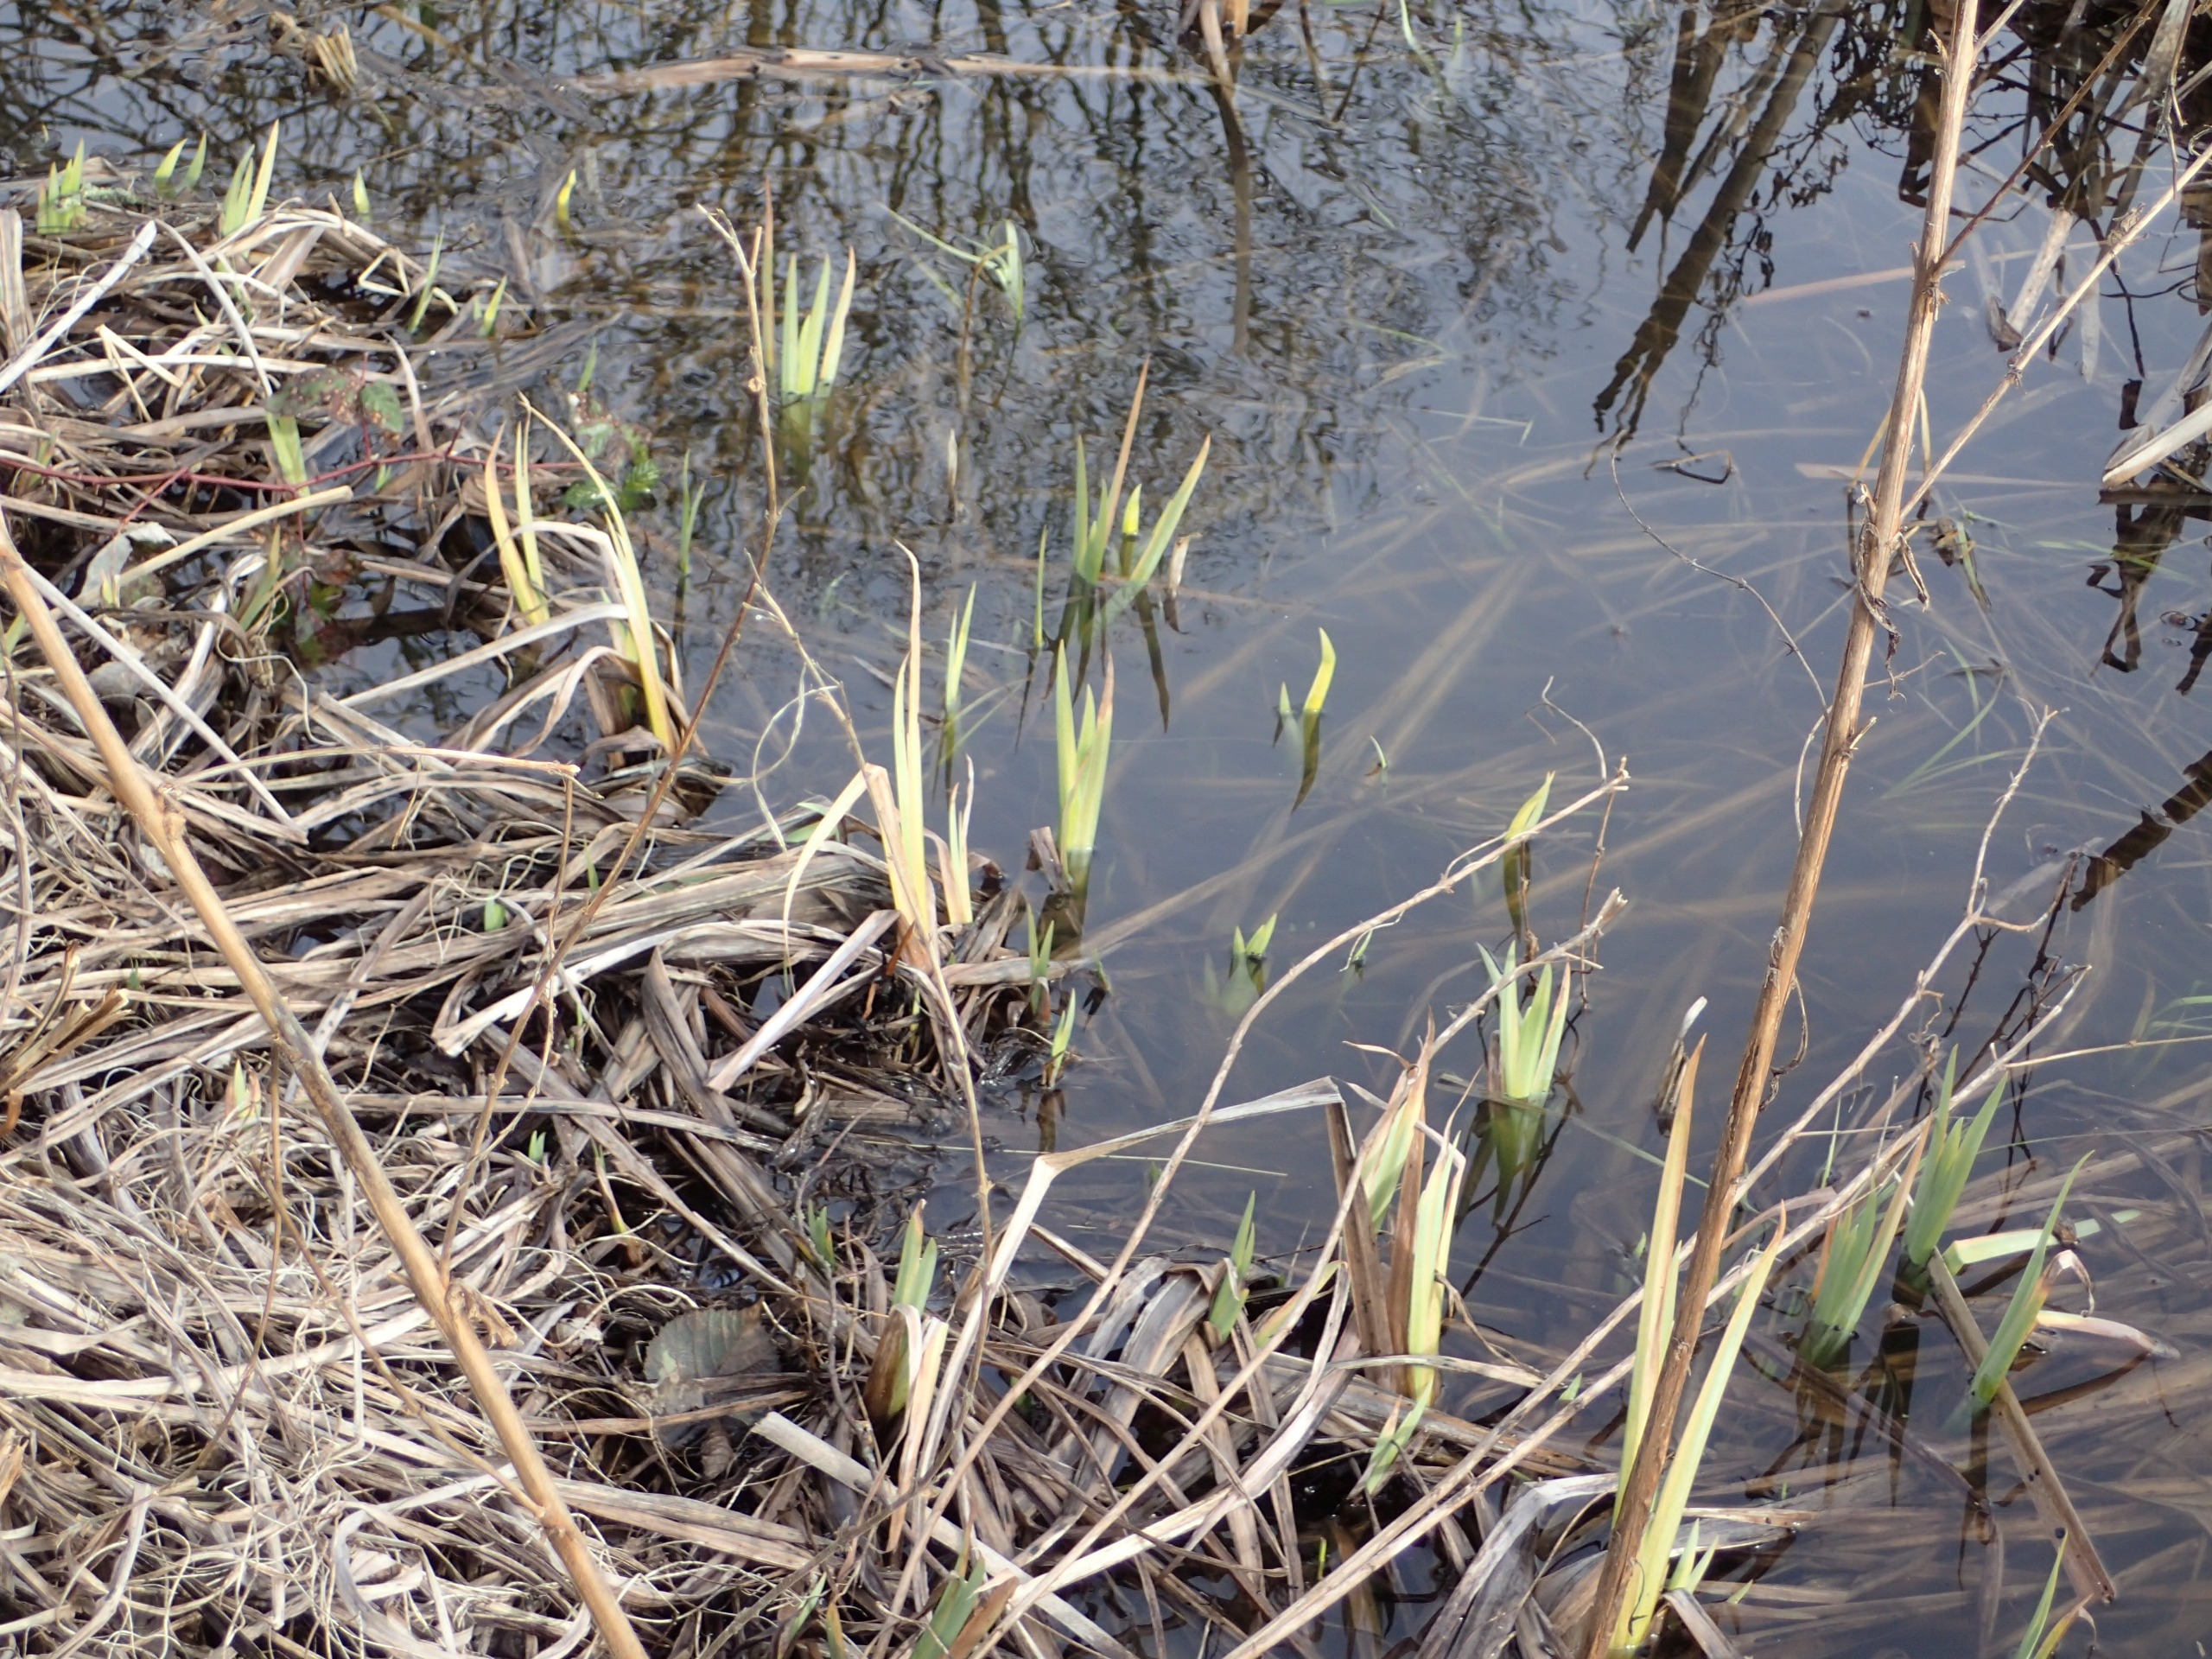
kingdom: Plantae
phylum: Tracheophyta
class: Liliopsida
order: Asparagales
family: Iridaceae
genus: Iris
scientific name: Iris pseudacorus
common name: Gul iris
